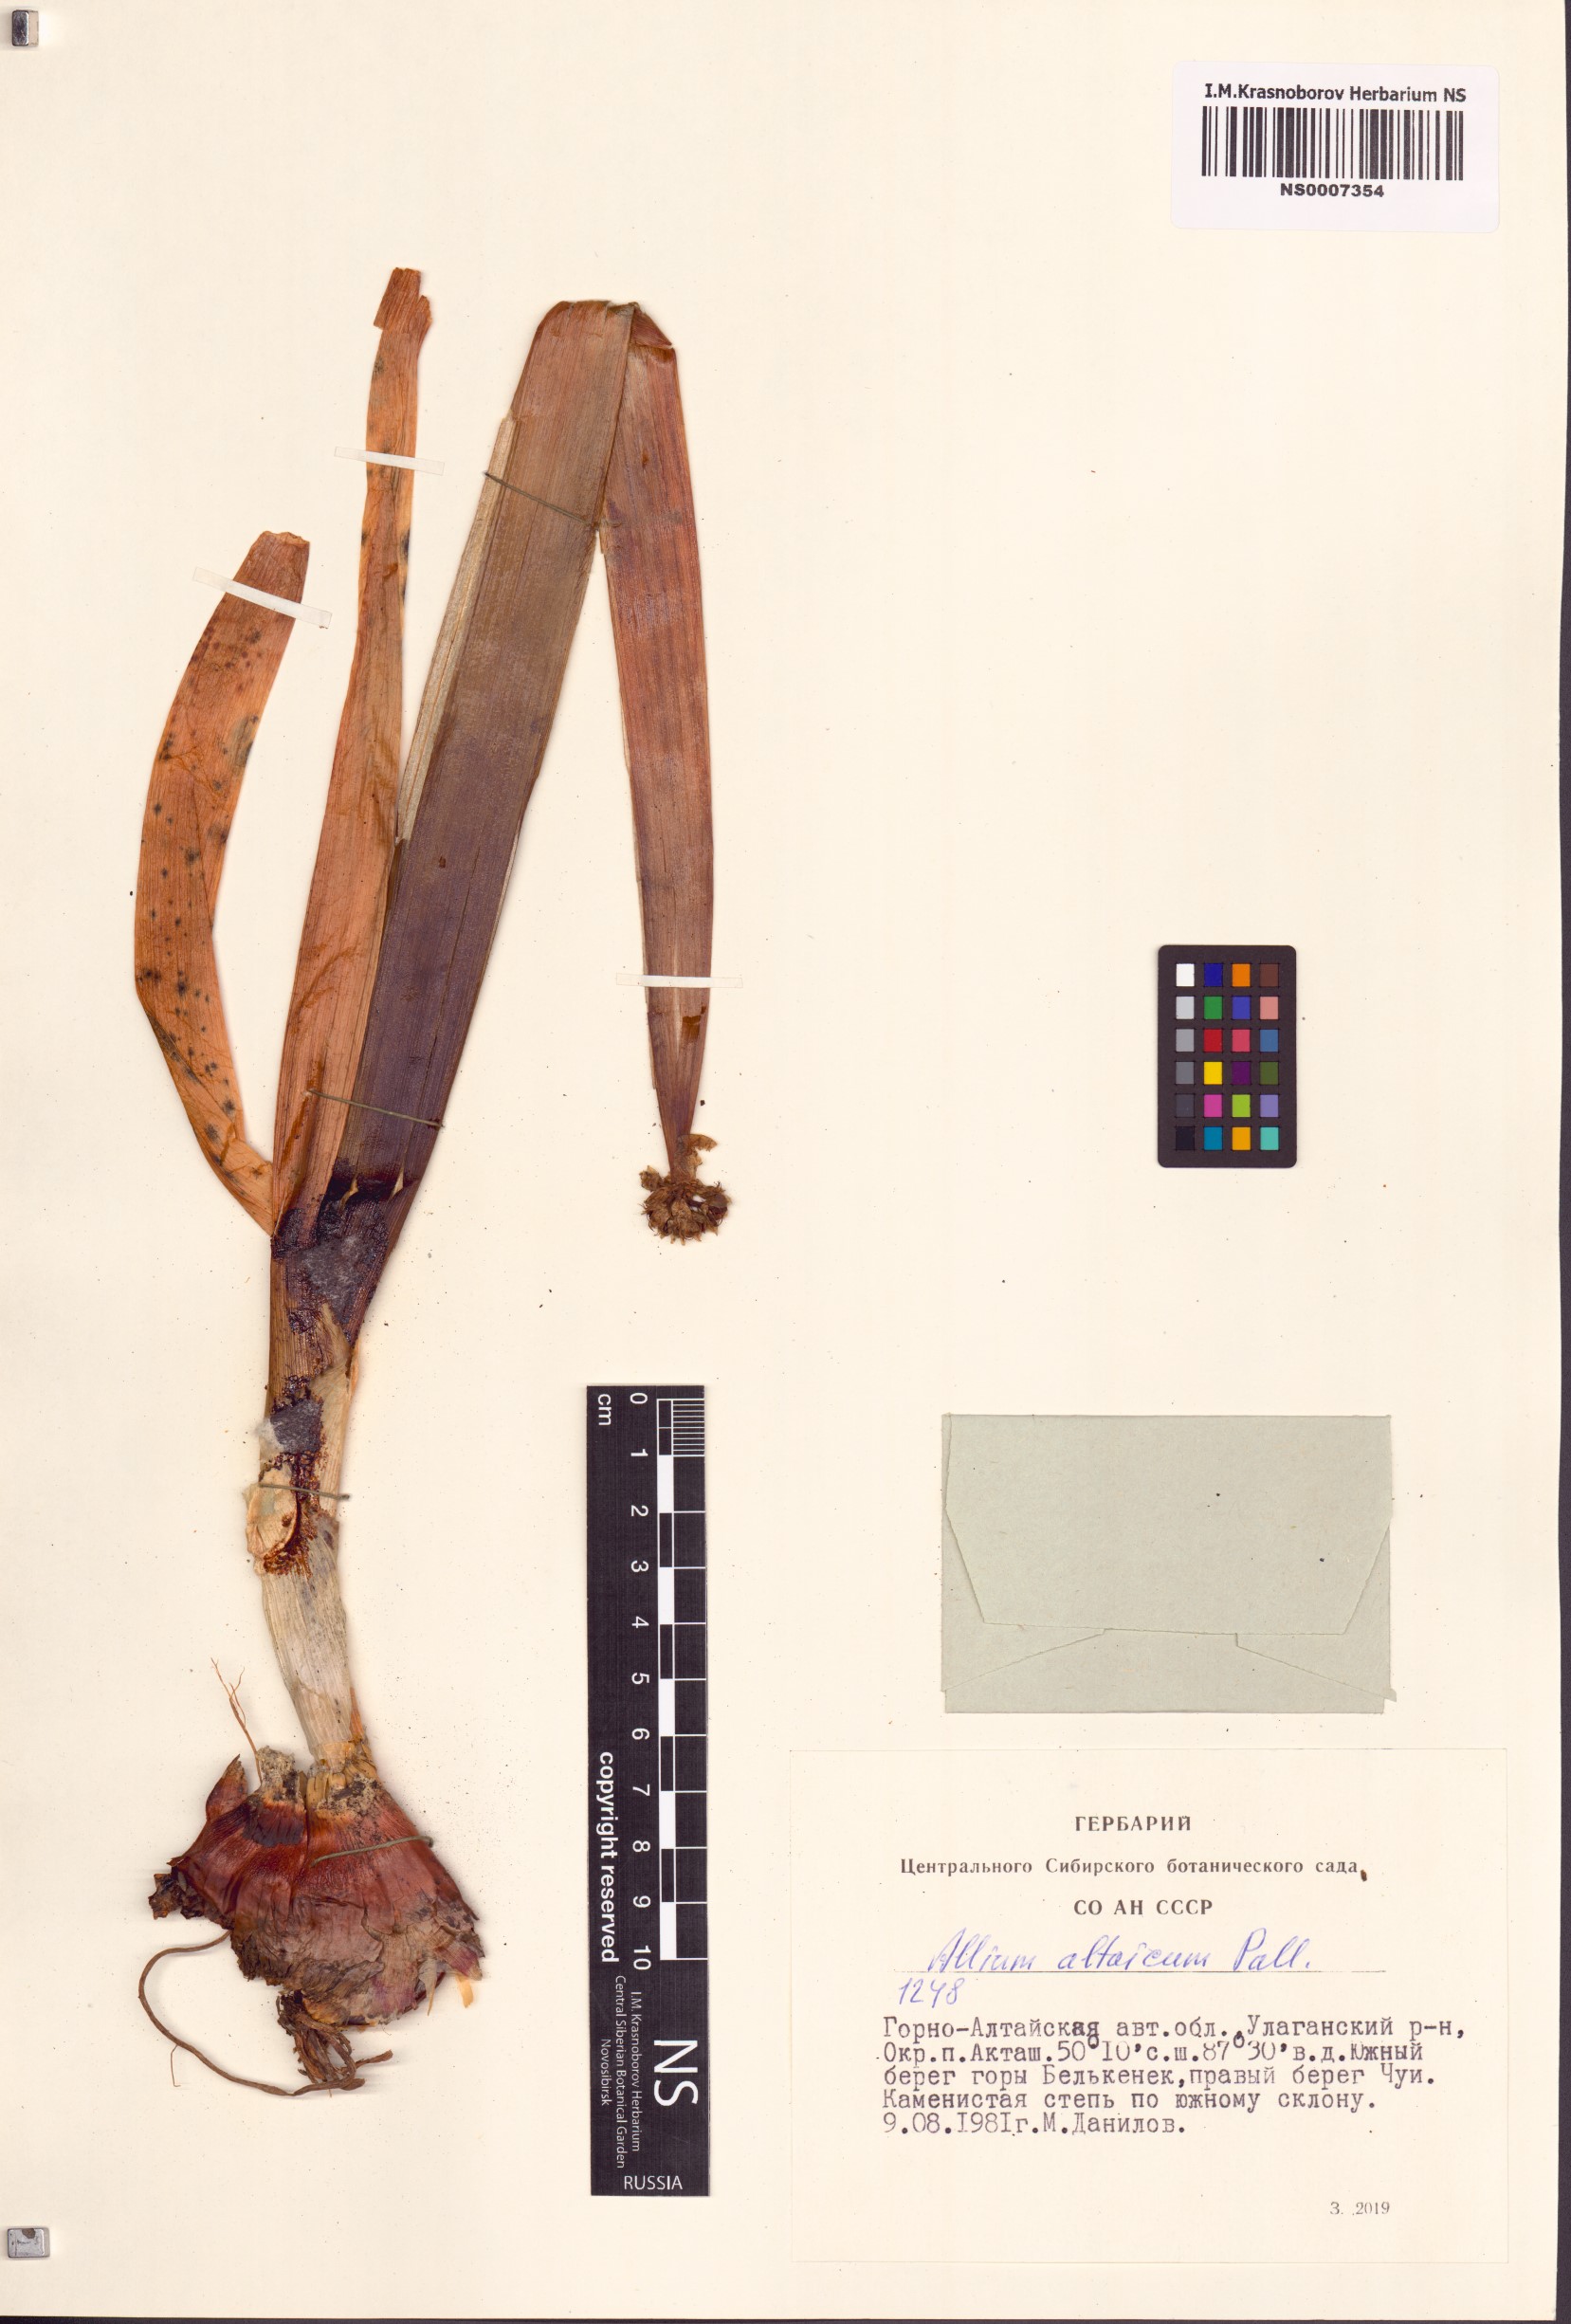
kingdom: Plantae
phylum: Tracheophyta
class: Liliopsida
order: Asparagales
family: Amaryllidaceae
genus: Allium
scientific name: Allium altaicum
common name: Altai onion
